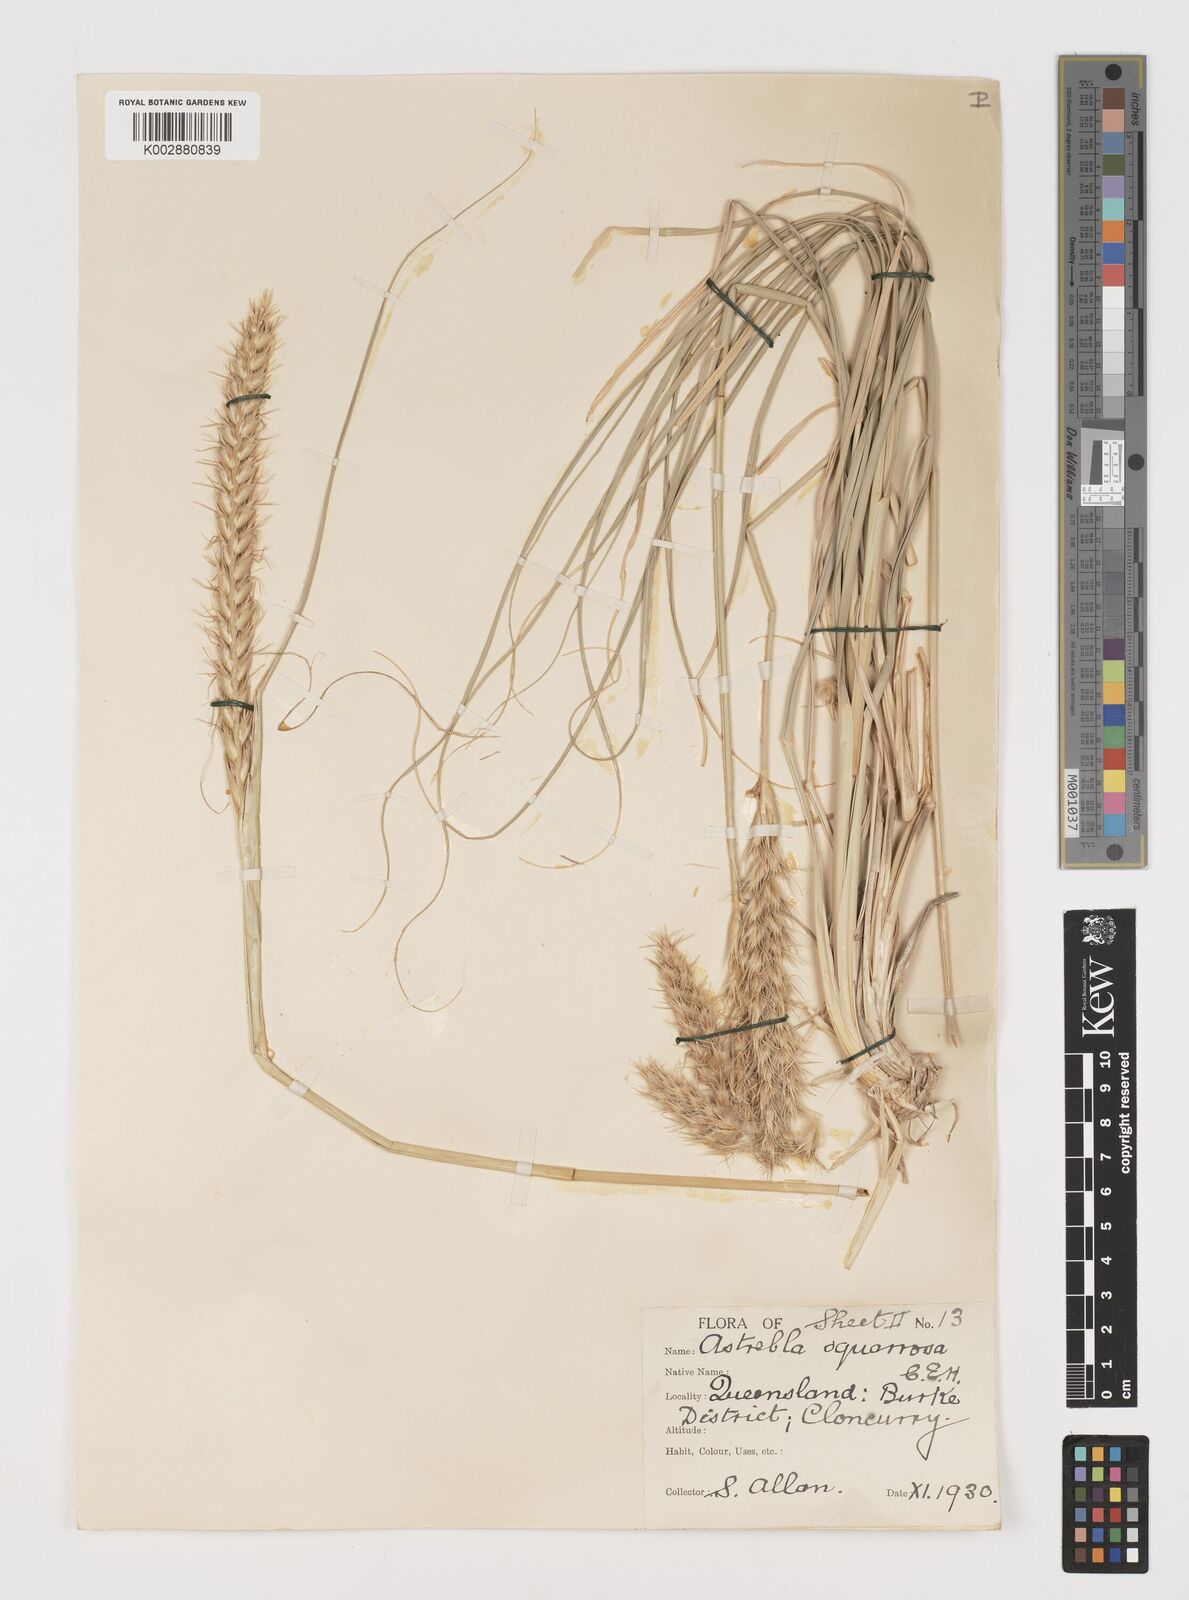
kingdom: Plantae
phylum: Tracheophyta
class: Liliopsida
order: Poales
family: Poaceae
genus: Astrebla
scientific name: Astrebla squarrosa
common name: Wheat-ear mitchell grass
